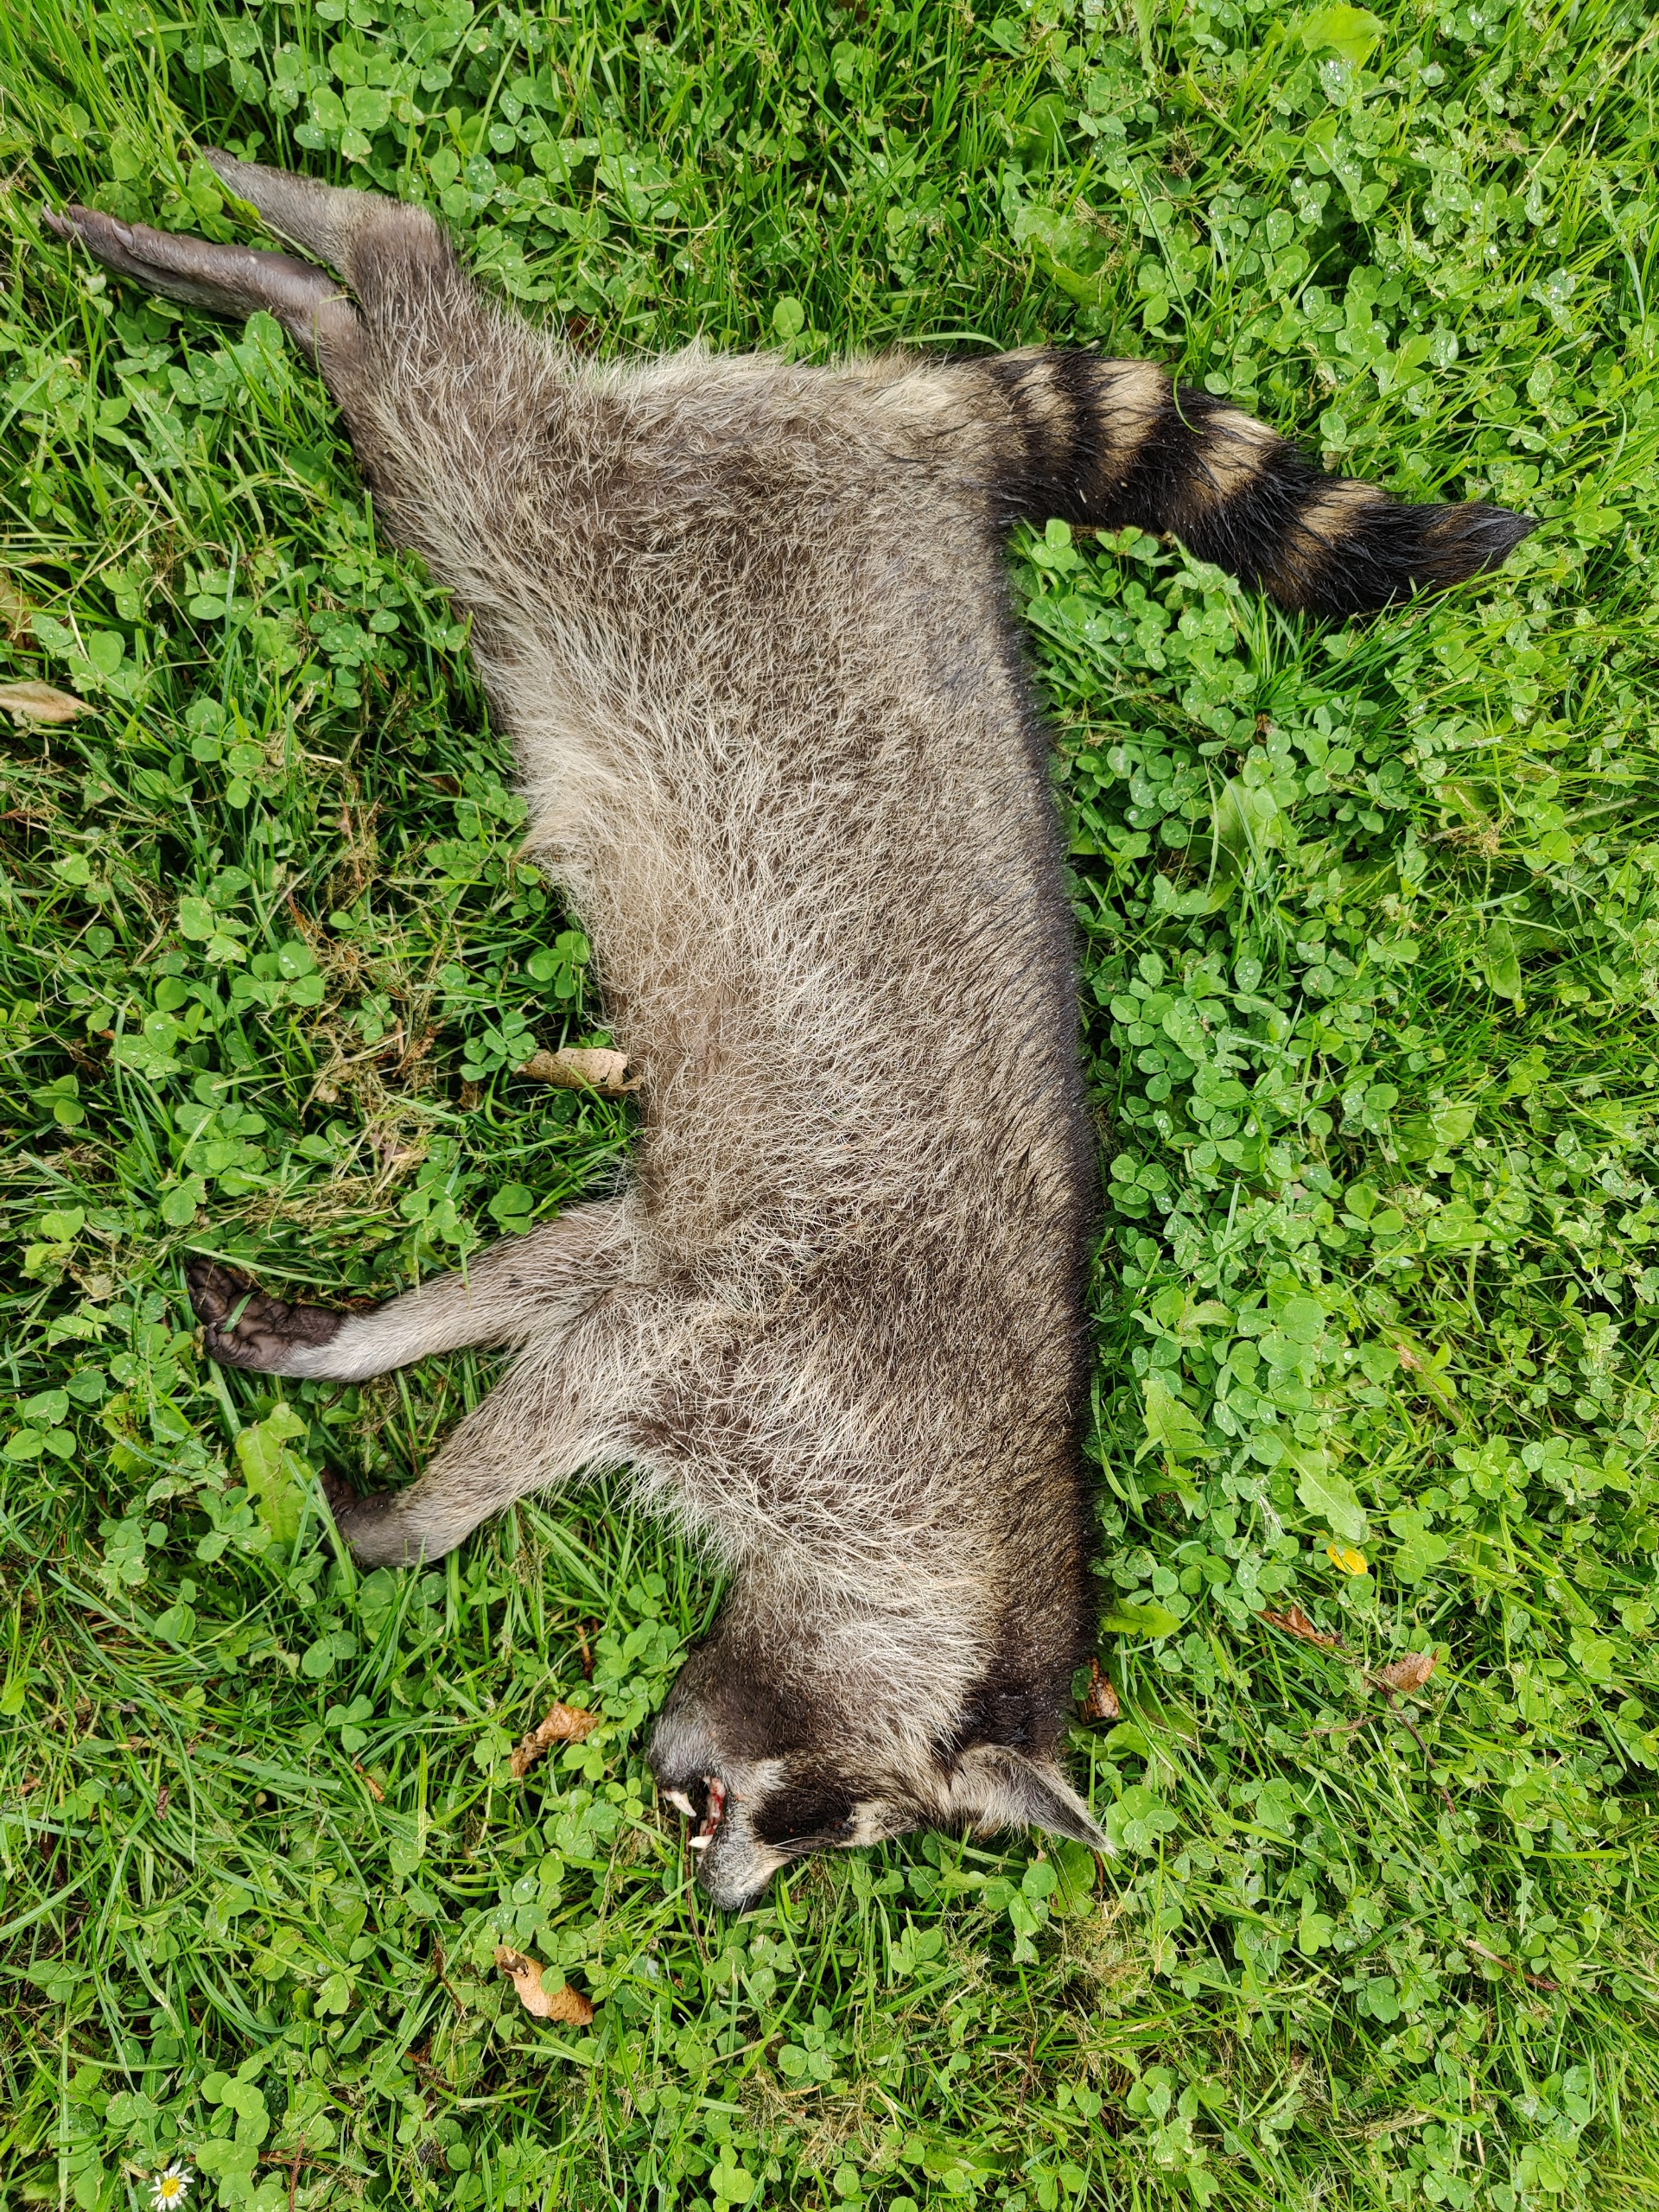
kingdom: Animalia
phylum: Chordata
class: Mammalia
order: Carnivora
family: Procyonidae
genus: Procyon
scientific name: Procyon lotor
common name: Vaskebjørn
